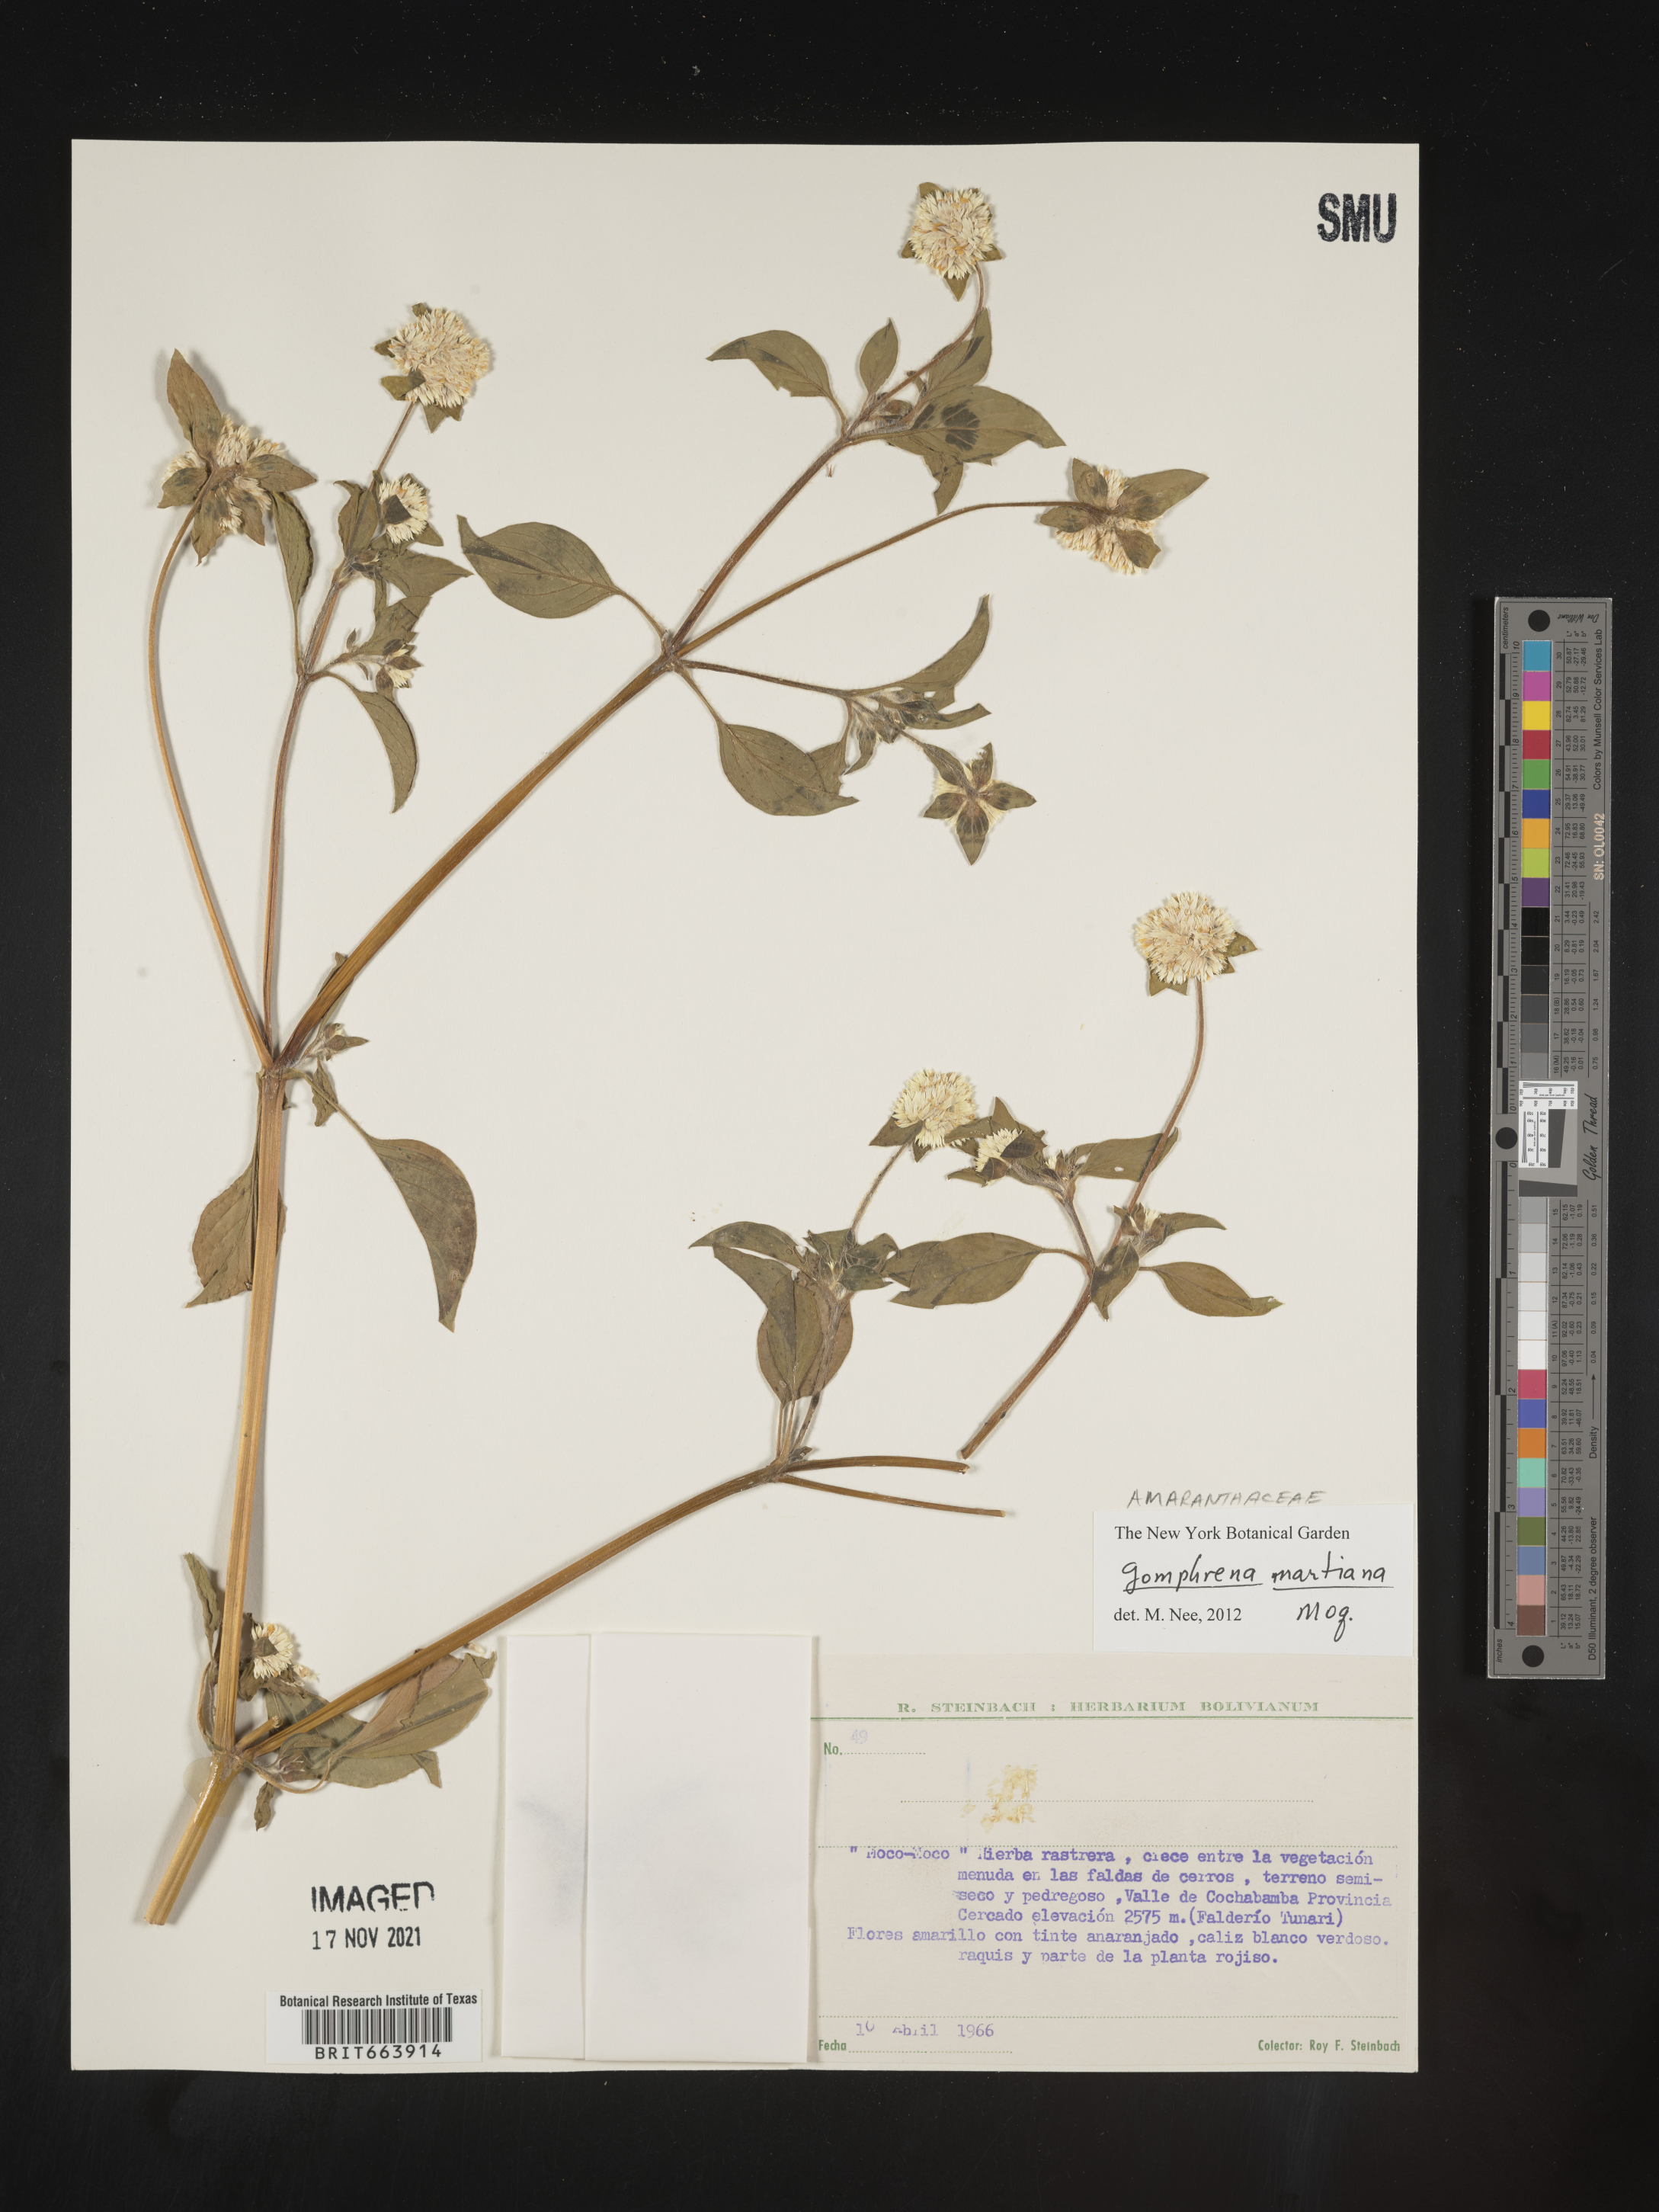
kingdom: Plantae
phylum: Tracheophyta
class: Magnoliopsida
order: Caryophyllales
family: Amaranthaceae
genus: Gomphrena
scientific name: Gomphrena
